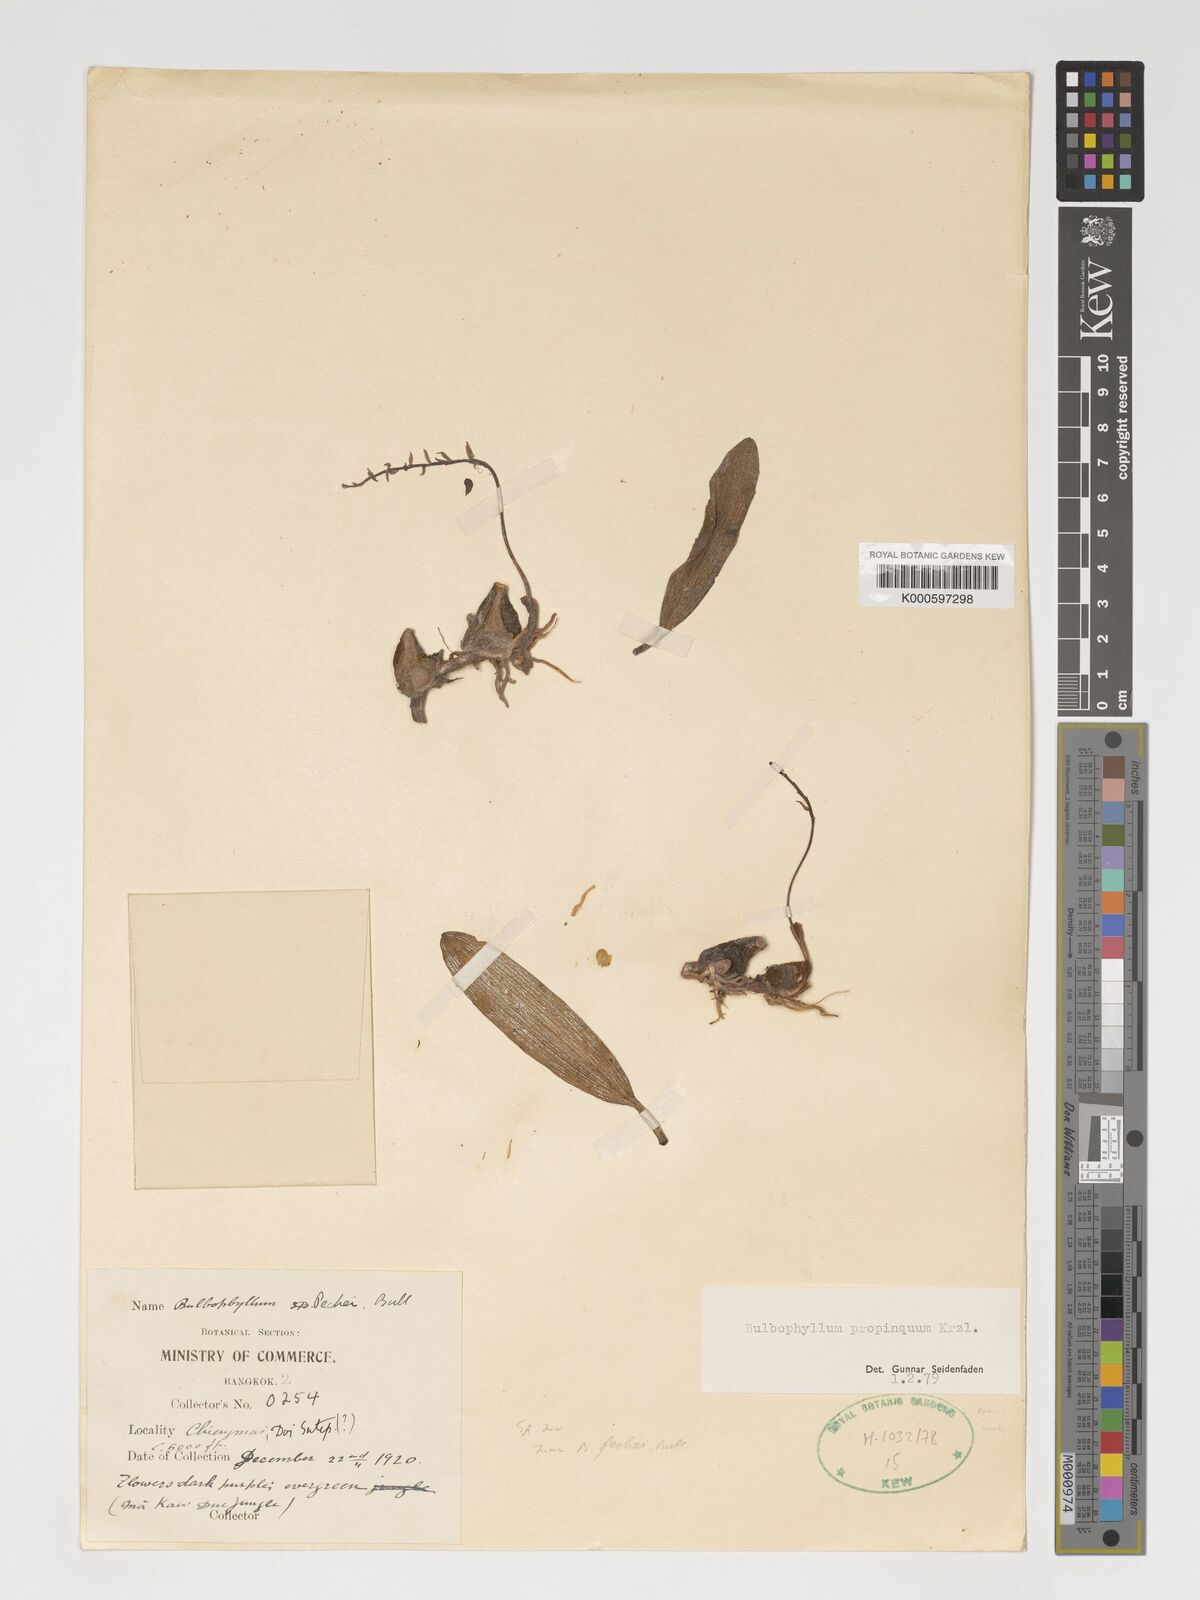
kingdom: Plantae
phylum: Tracheophyta
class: Liliopsida
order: Asparagales
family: Orchidaceae
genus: Bulbophyllum
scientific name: Bulbophyllum propinquum
